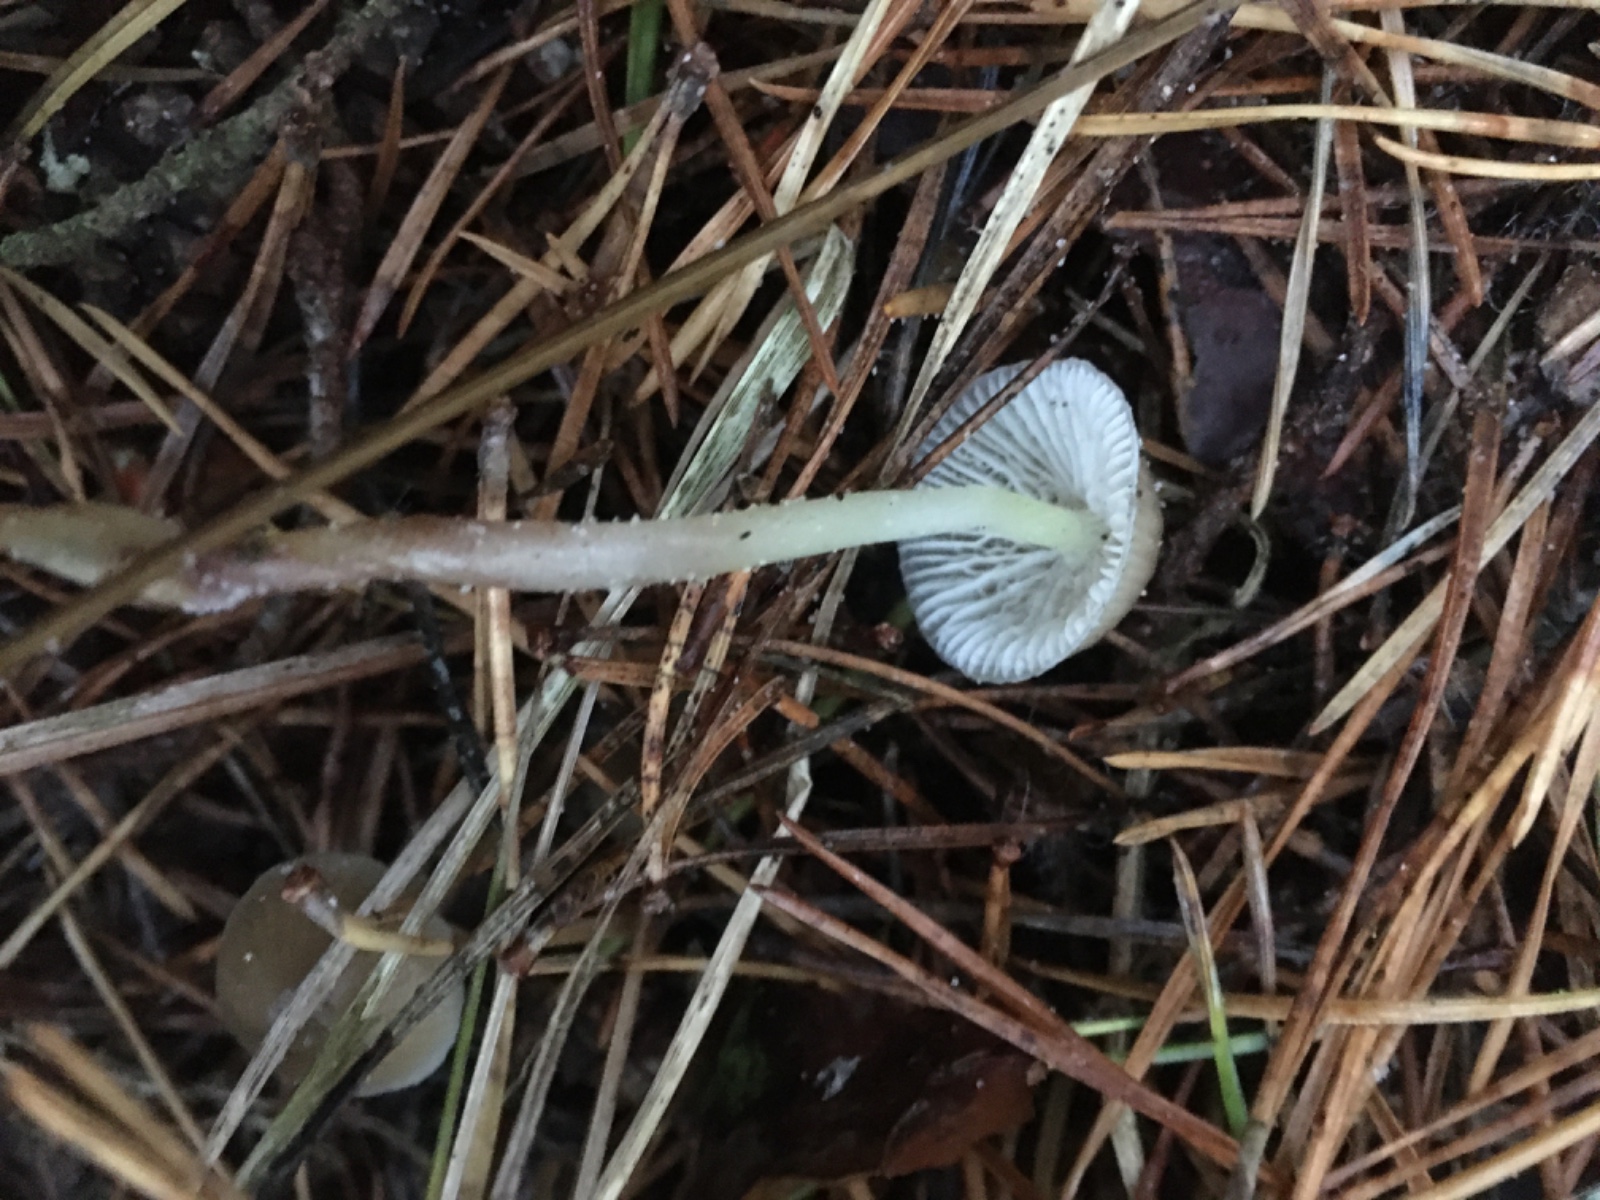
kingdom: Fungi
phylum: Basidiomycota
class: Agaricomycetes
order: Agaricales
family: Mycenaceae
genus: Mycena
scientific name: Mycena epipterygia
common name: gulstokket huesvamp
